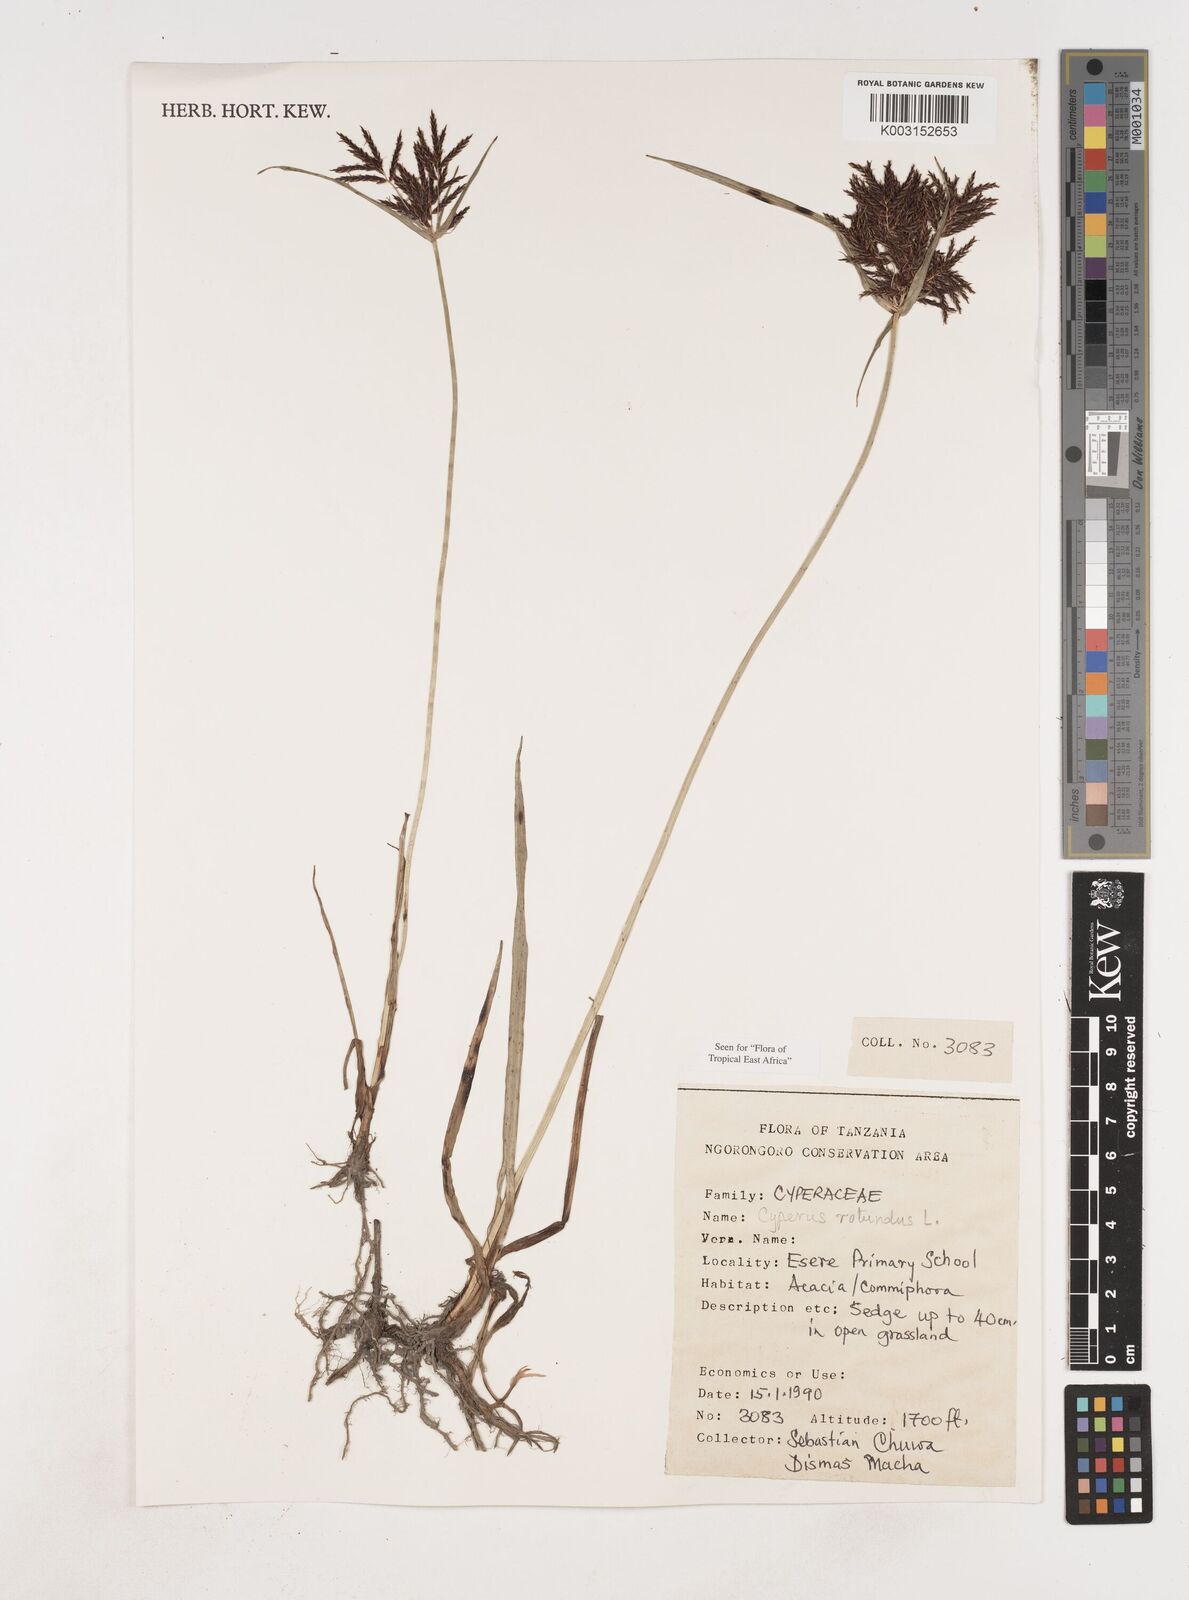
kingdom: Plantae
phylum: Tracheophyta
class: Liliopsida
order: Poales
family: Cyperaceae
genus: Cyperus
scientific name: Cyperus rotundus
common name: Nutgrass
